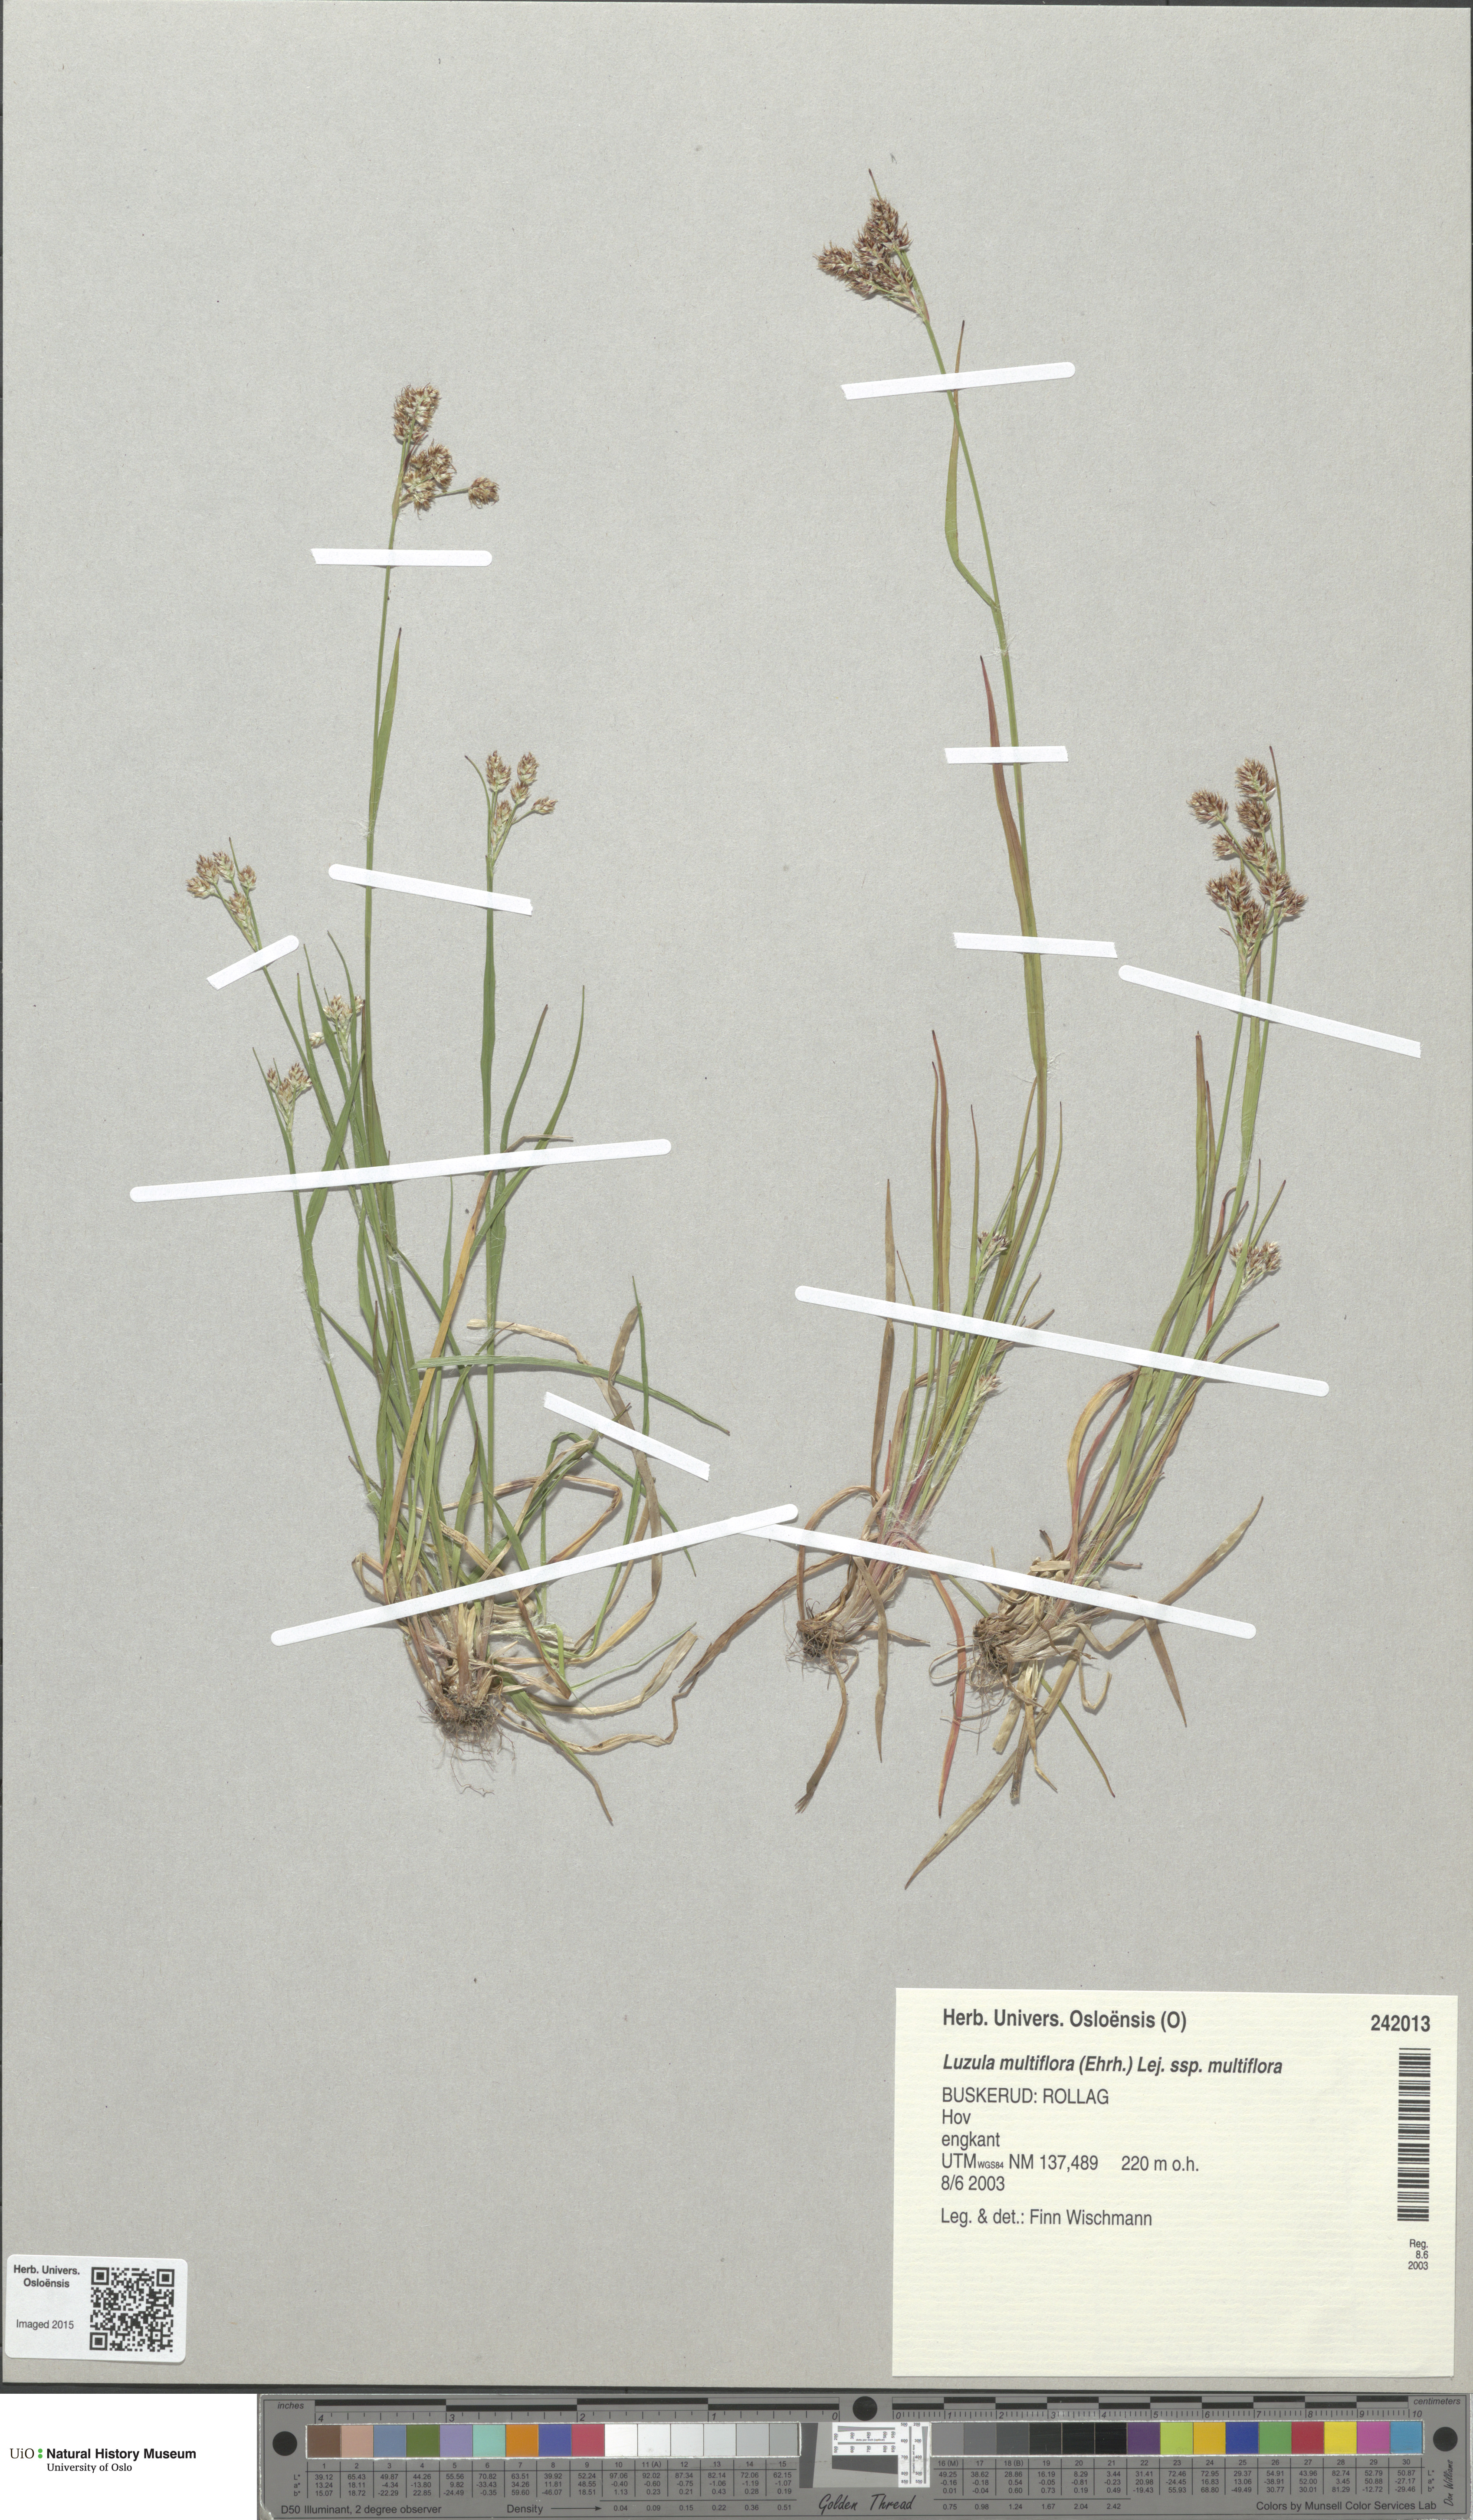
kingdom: Plantae
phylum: Tracheophyta
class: Liliopsida
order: Poales
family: Juncaceae
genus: Luzula
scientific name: Luzula multiflora
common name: Heath wood-rush
